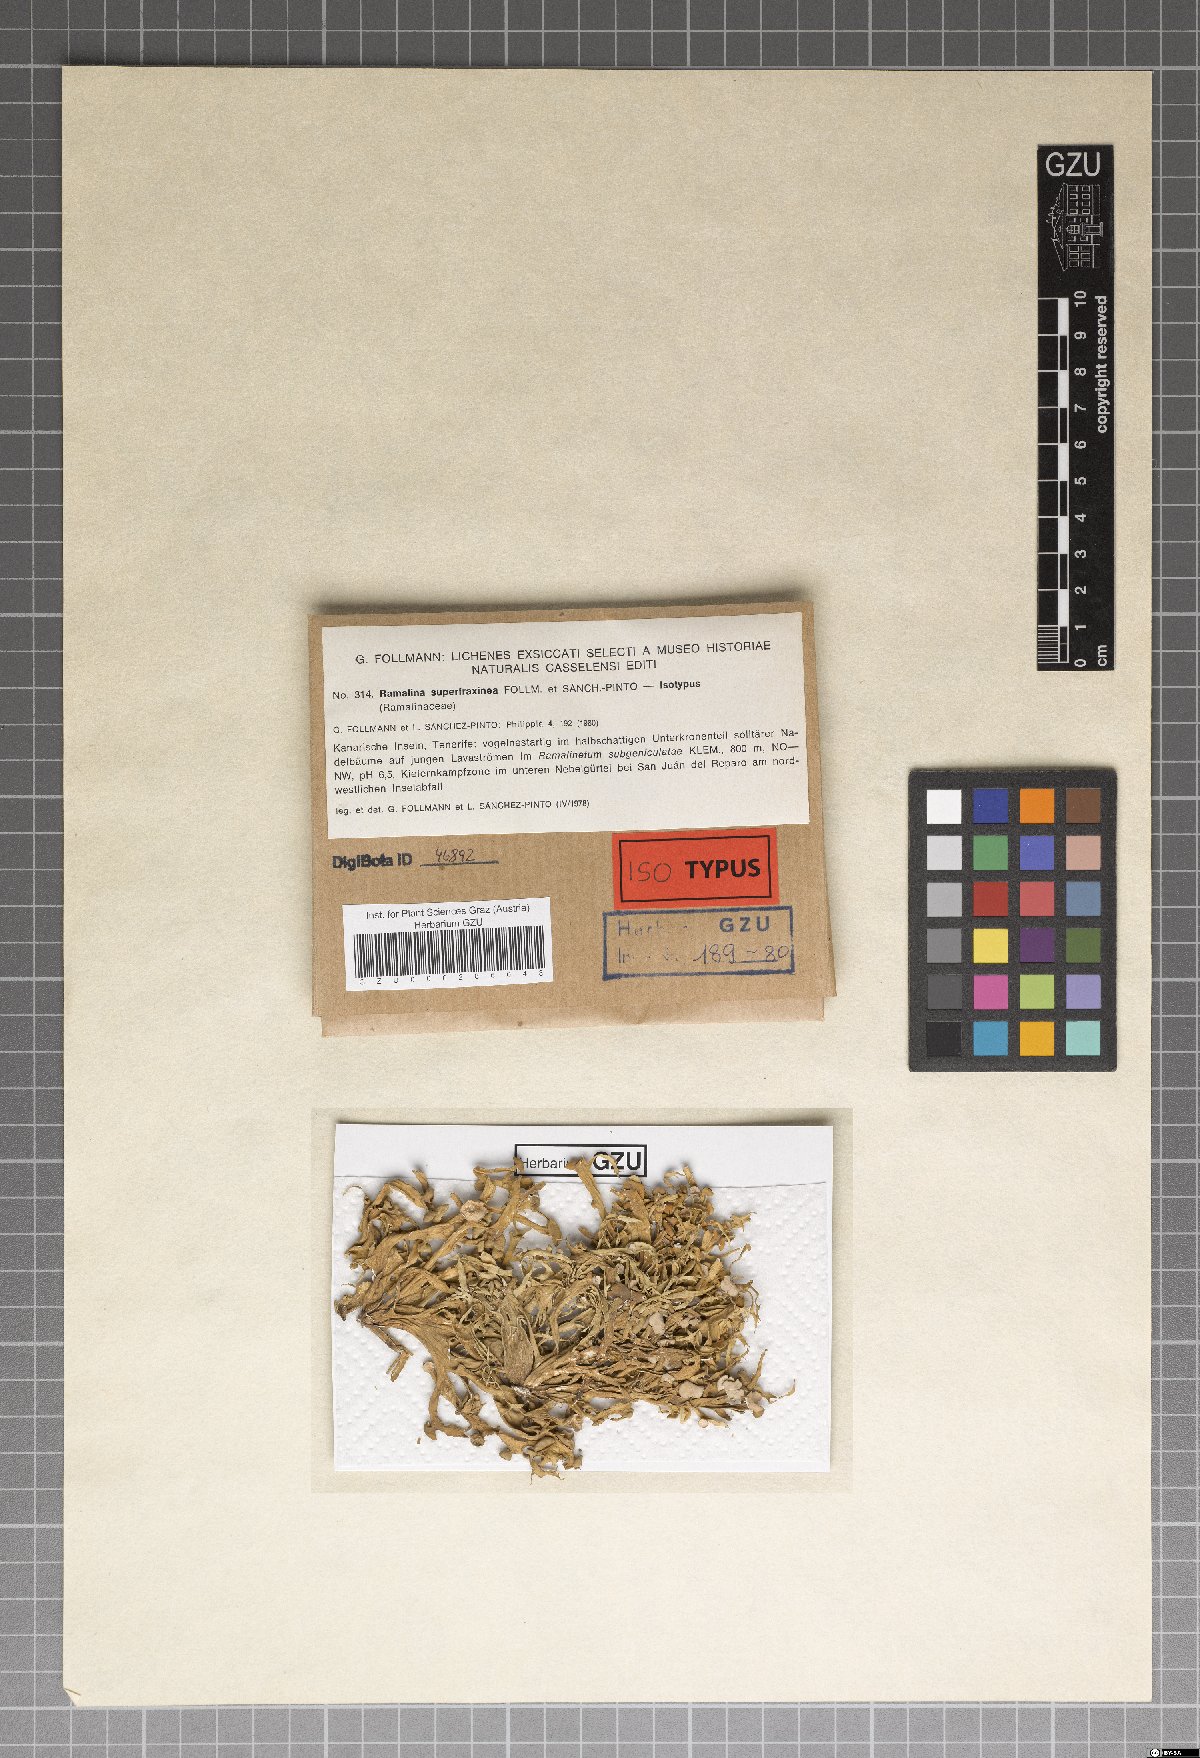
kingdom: Fungi
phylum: Ascomycota
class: Lecanoromycetes
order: Lecanorales
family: Ramalinaceae
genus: Ramalina
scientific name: Ramalina superfraxinea
